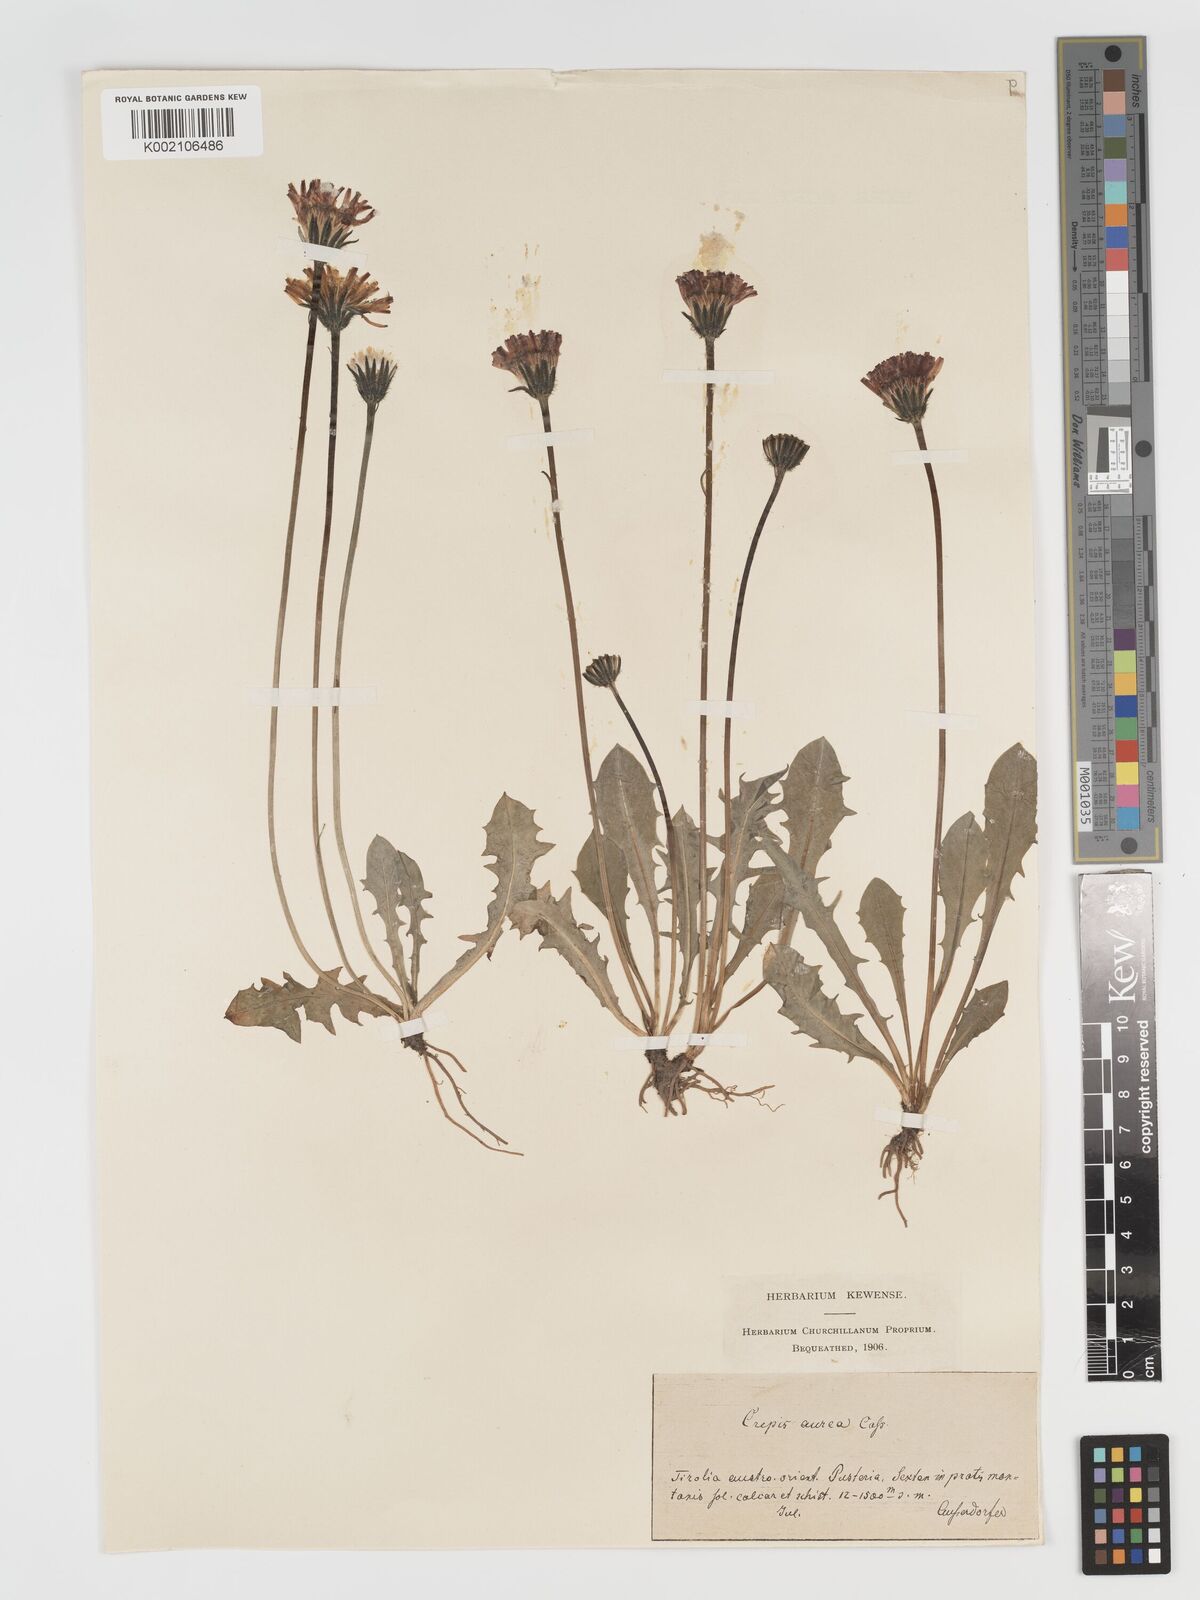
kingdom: Plantae
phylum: Tracheophyta
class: Magnoliopsida
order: Asterales
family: Asteraceae
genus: Crepis
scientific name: Crepis aurea
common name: Golden hawk's-beard
